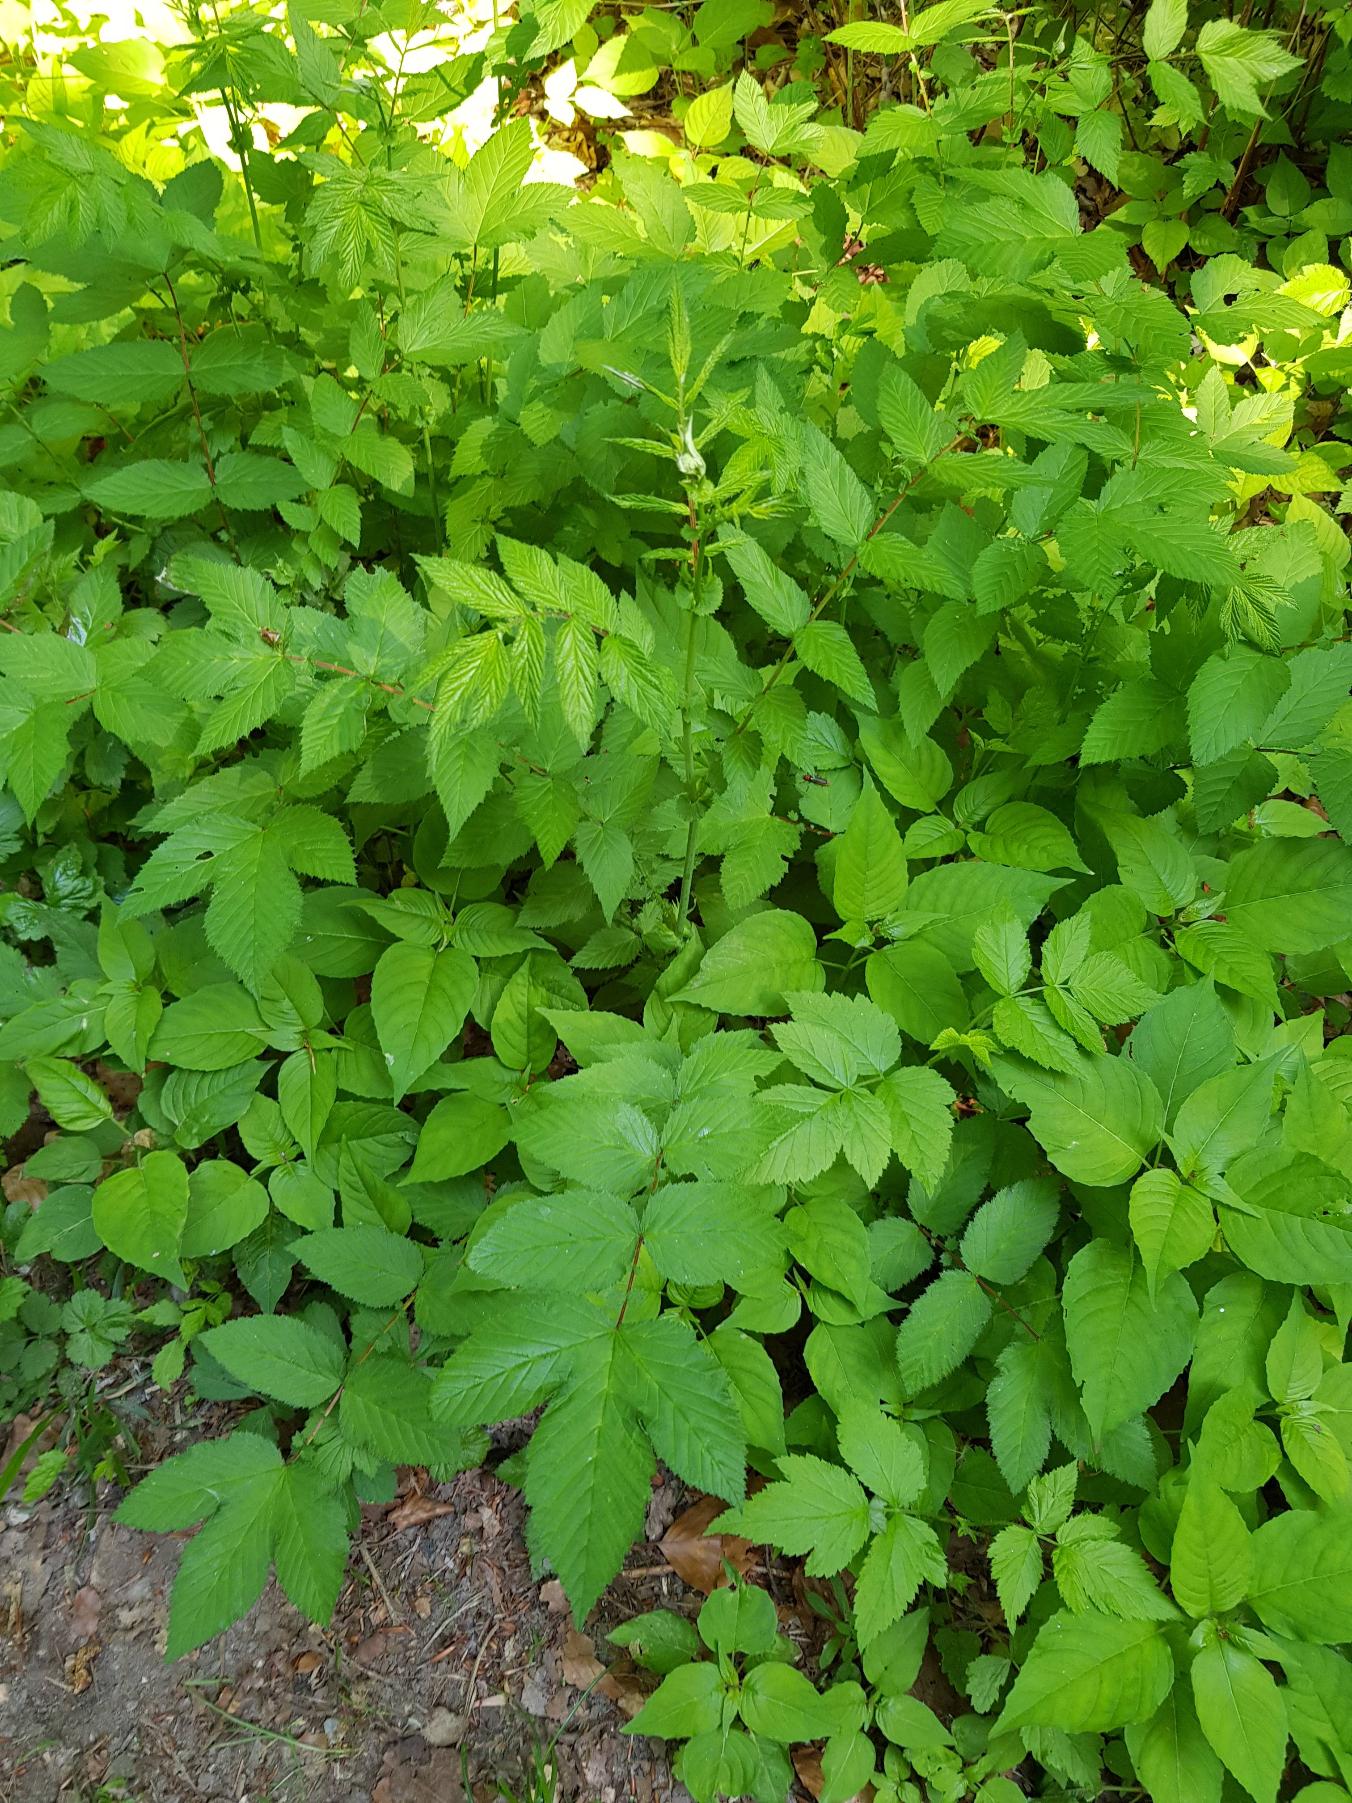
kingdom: Plantae
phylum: Tracheophyta
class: Magnoliopsida
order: Rosales
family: Rosaceae
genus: Filipendula
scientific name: Filipendula ulmaria
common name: Almindelig mjødurt
